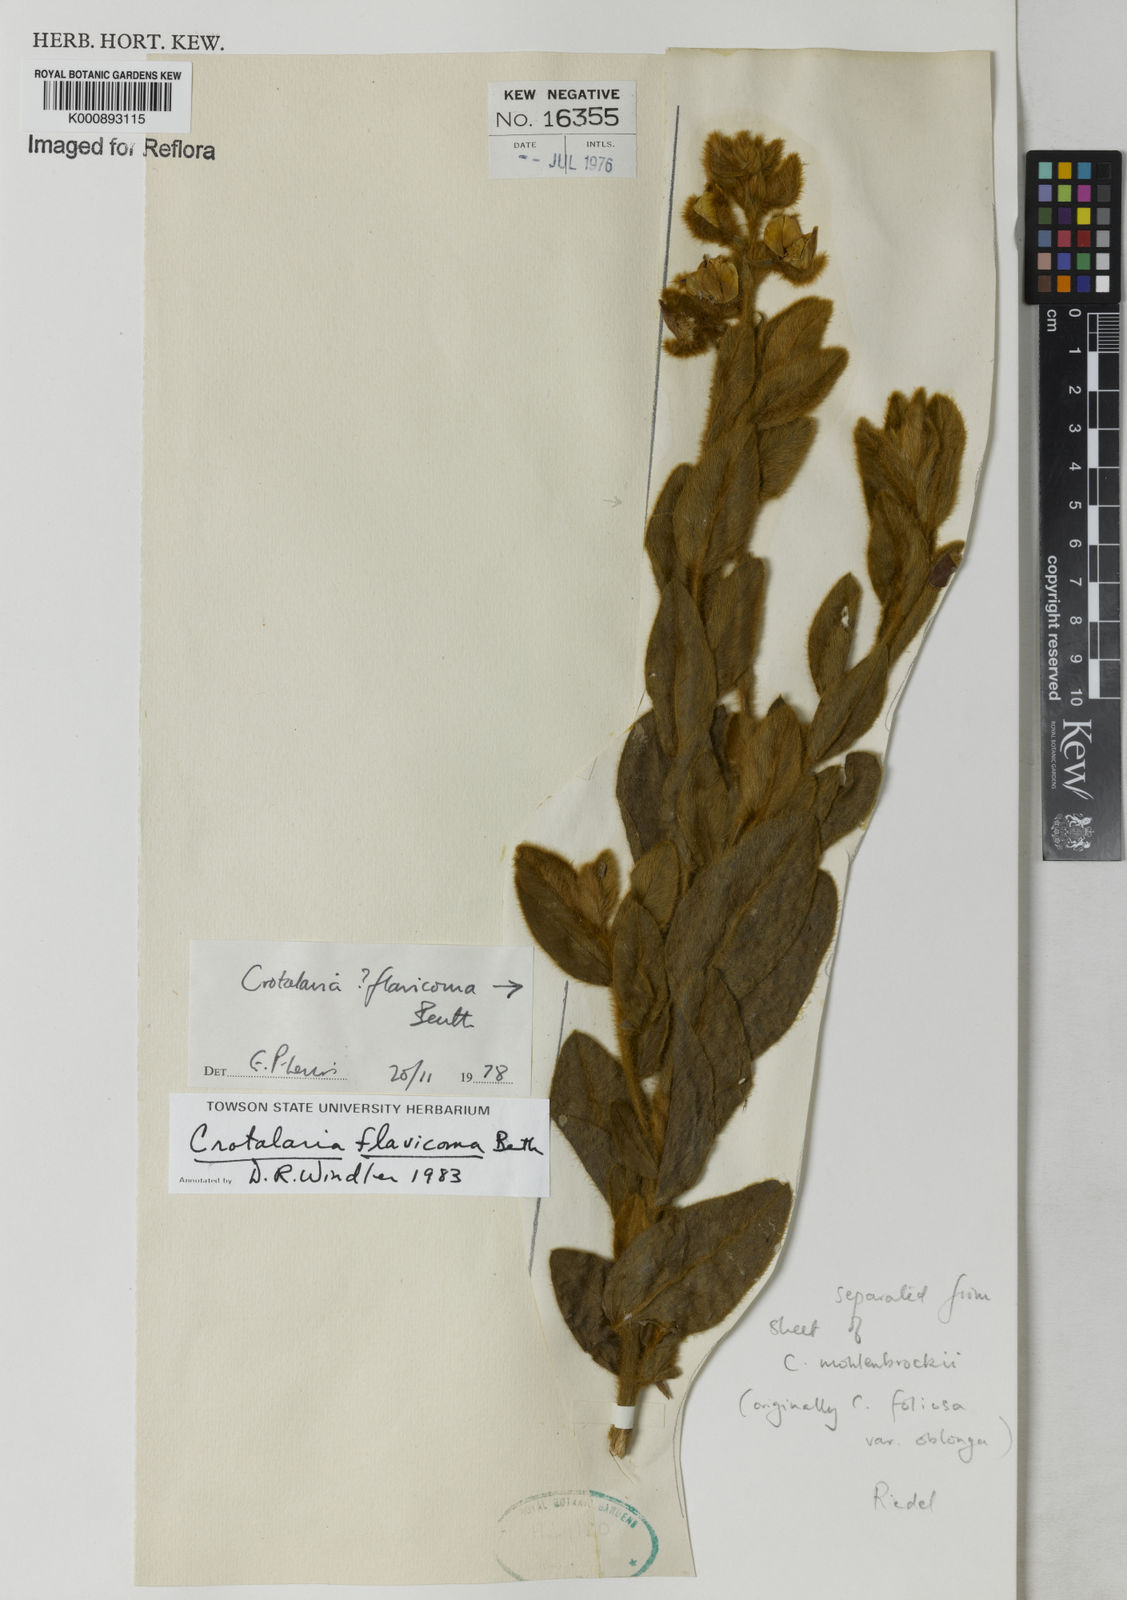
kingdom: Plantae
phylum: Tracheophyta
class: Magnoliopsida
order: Fabales
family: Fabaceae
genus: Crotalaria
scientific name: Crotalaria flavicoma
